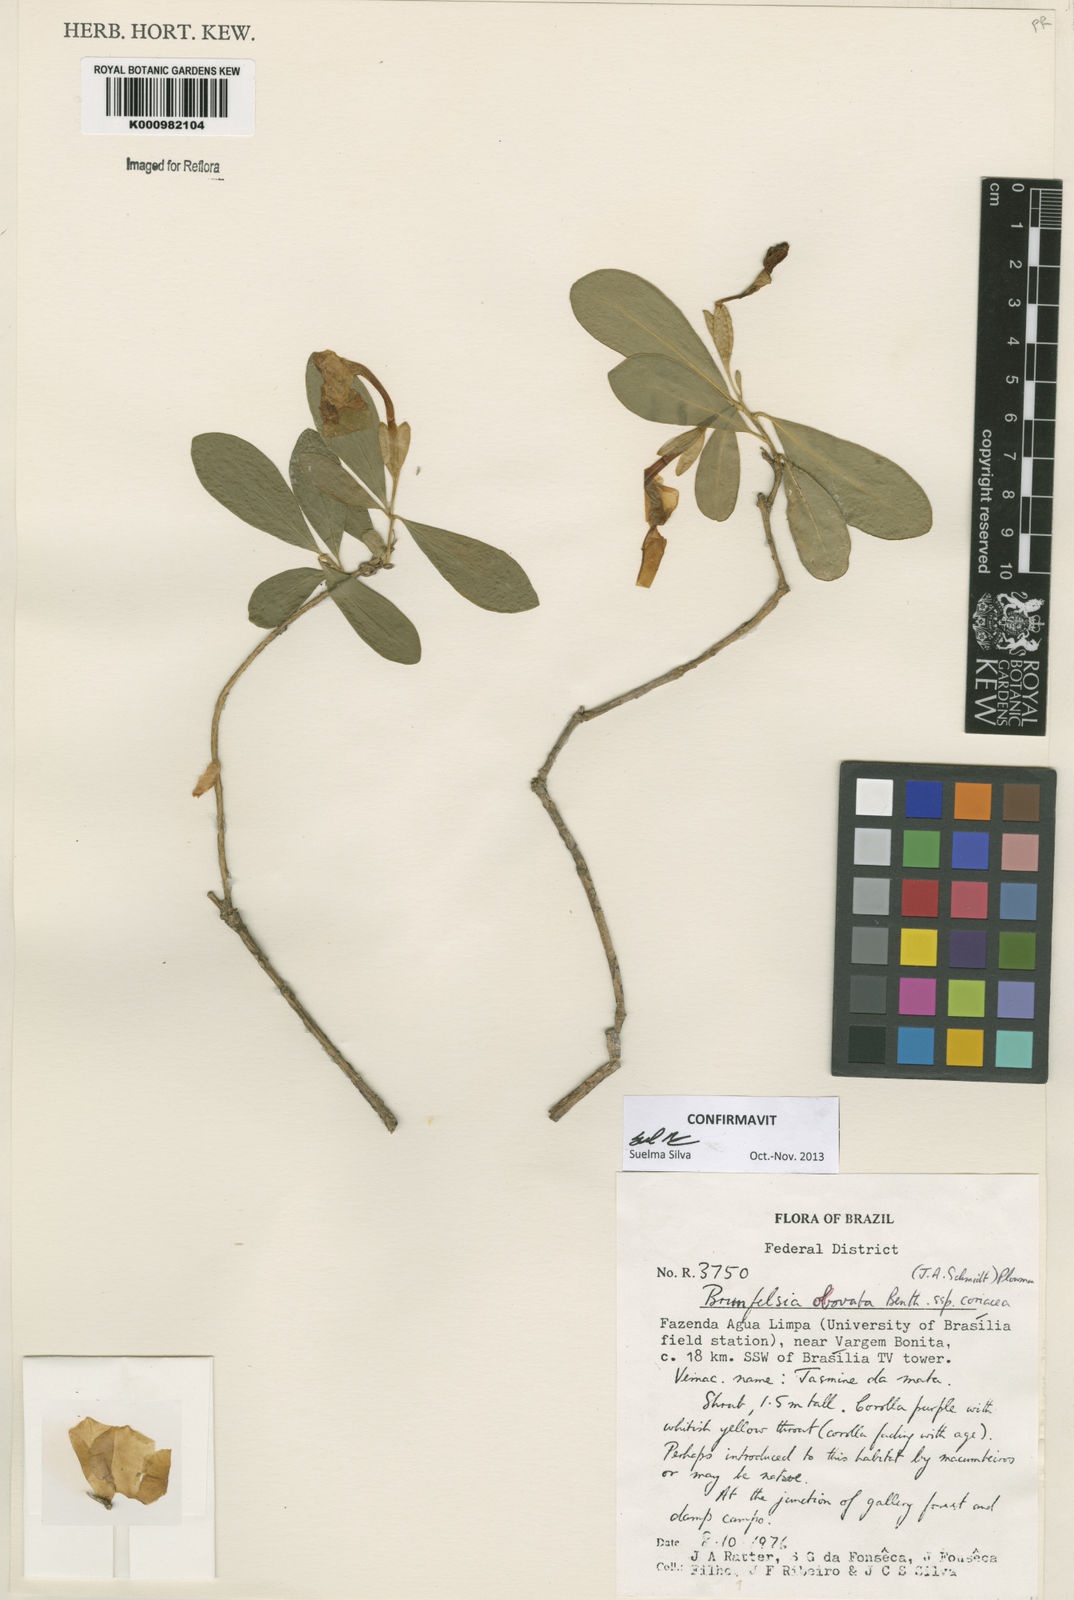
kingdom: Plantae
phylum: Tracheophyta
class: Magnoliopsida
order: Solanales
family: Solanaceae
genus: Brunfelsia
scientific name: Brunfelsia obovata
